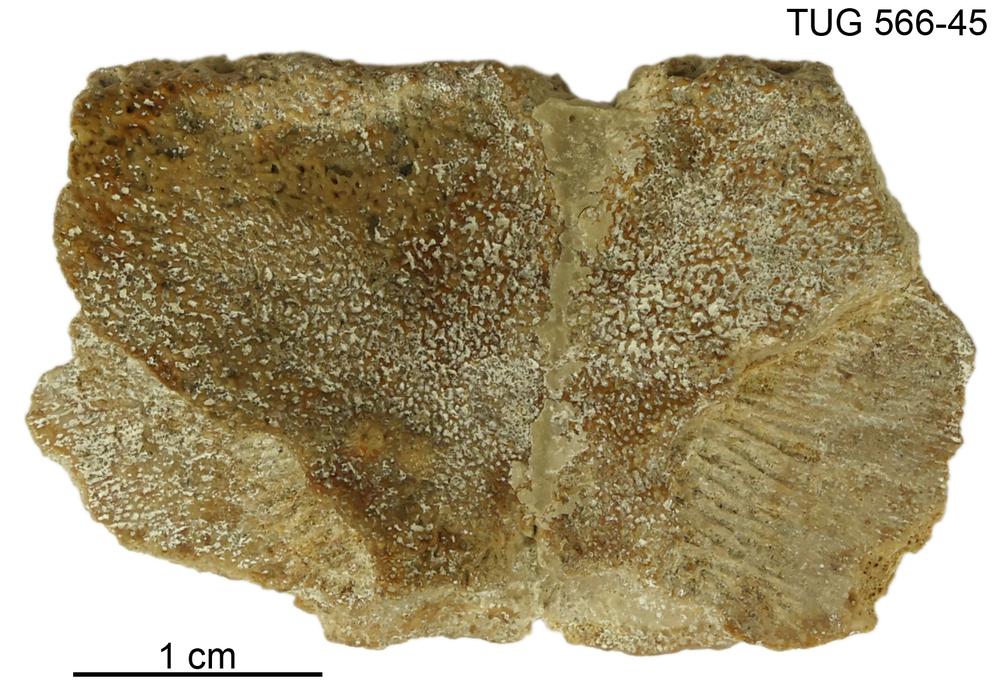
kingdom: Animalia
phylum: Chordata
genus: Homosteus
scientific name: Homosteus sulcatus
